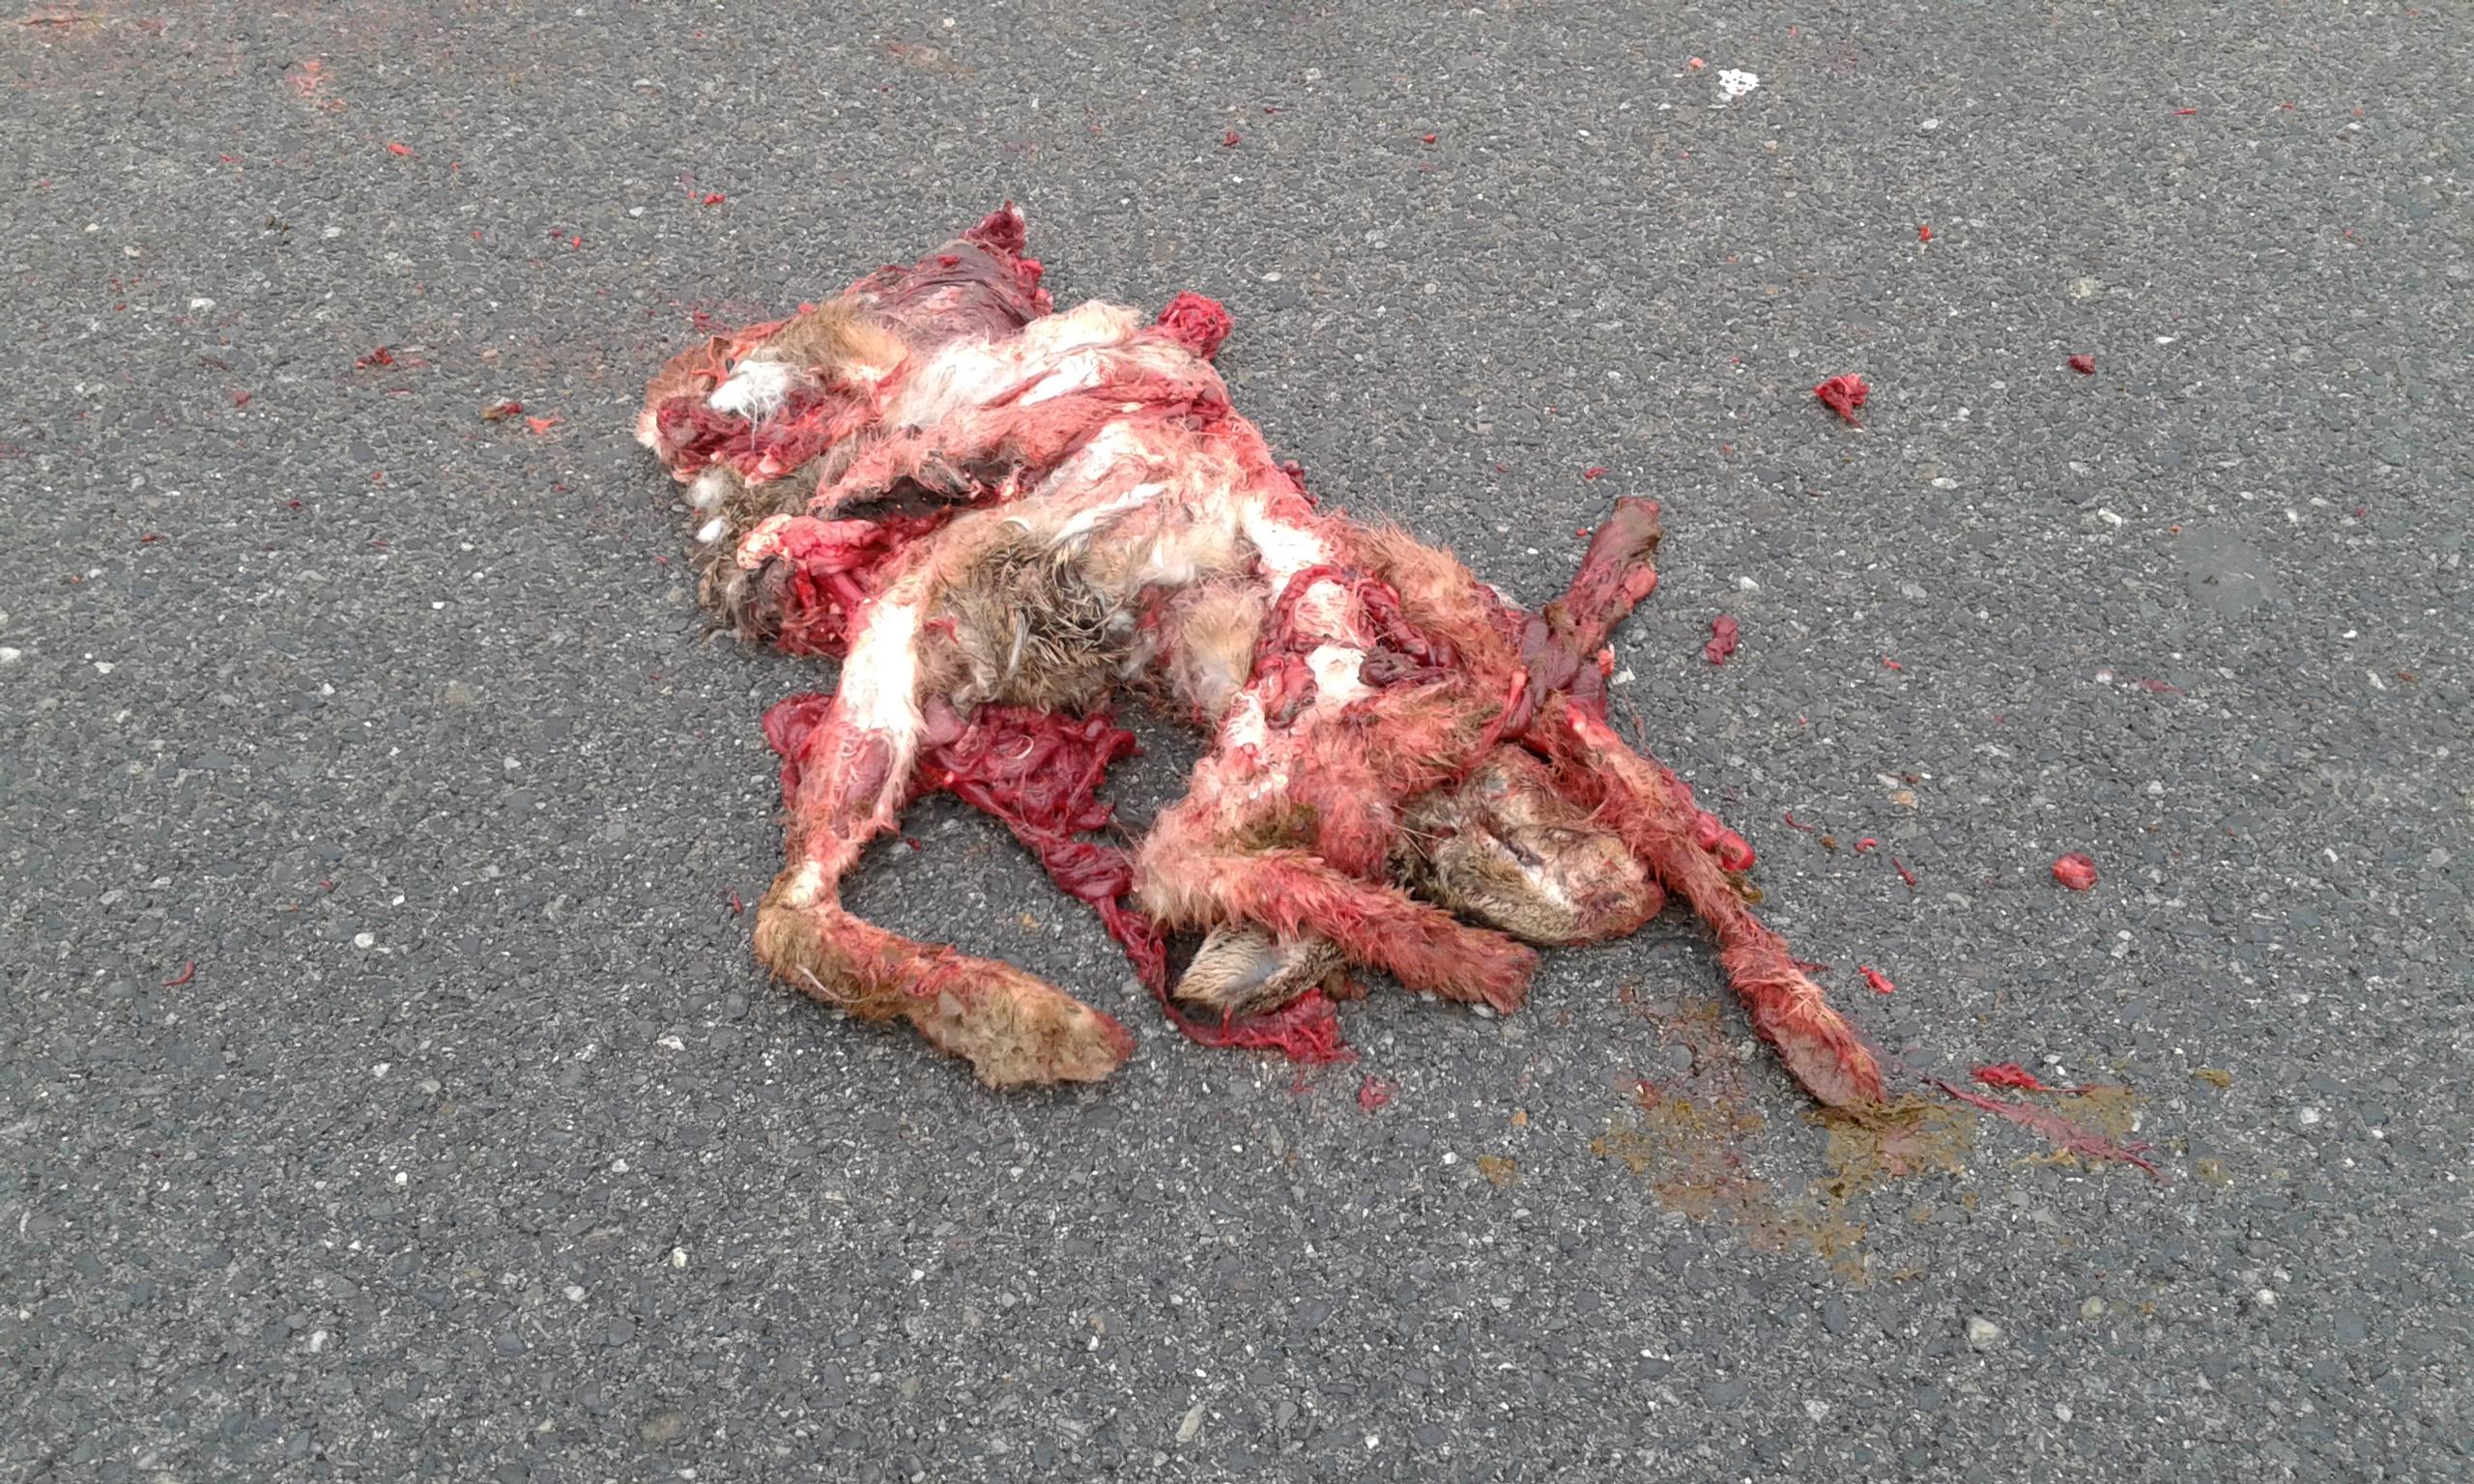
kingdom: Animalia
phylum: Chordata
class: Mammalia
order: Lagomorpha
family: Leporidae
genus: Lepus
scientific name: Lepus europaeus
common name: European hare
